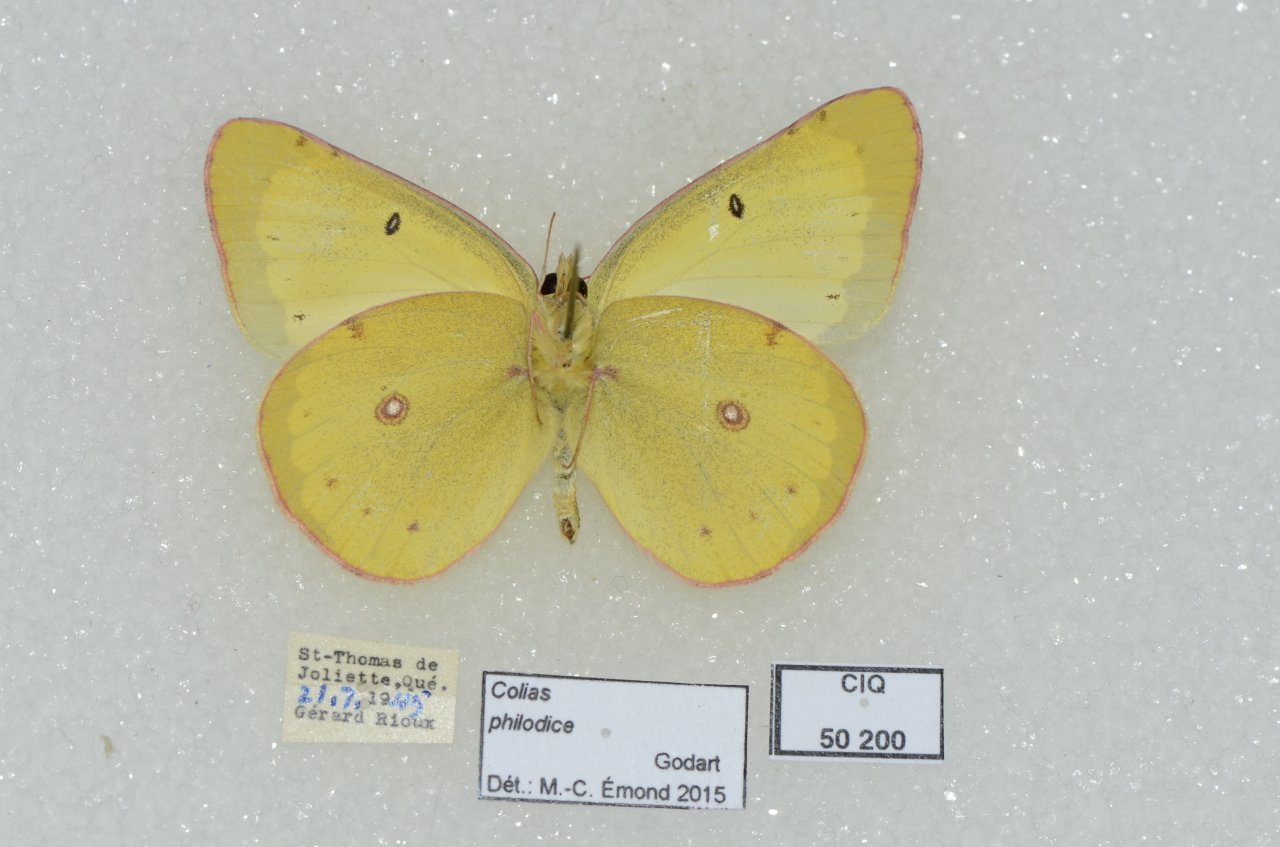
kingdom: Animalia
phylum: Arthropoda
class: Insecta
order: Lepidoptera
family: Pieridae
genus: Colias
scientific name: Colias philodice
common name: Clouded Sulphur
